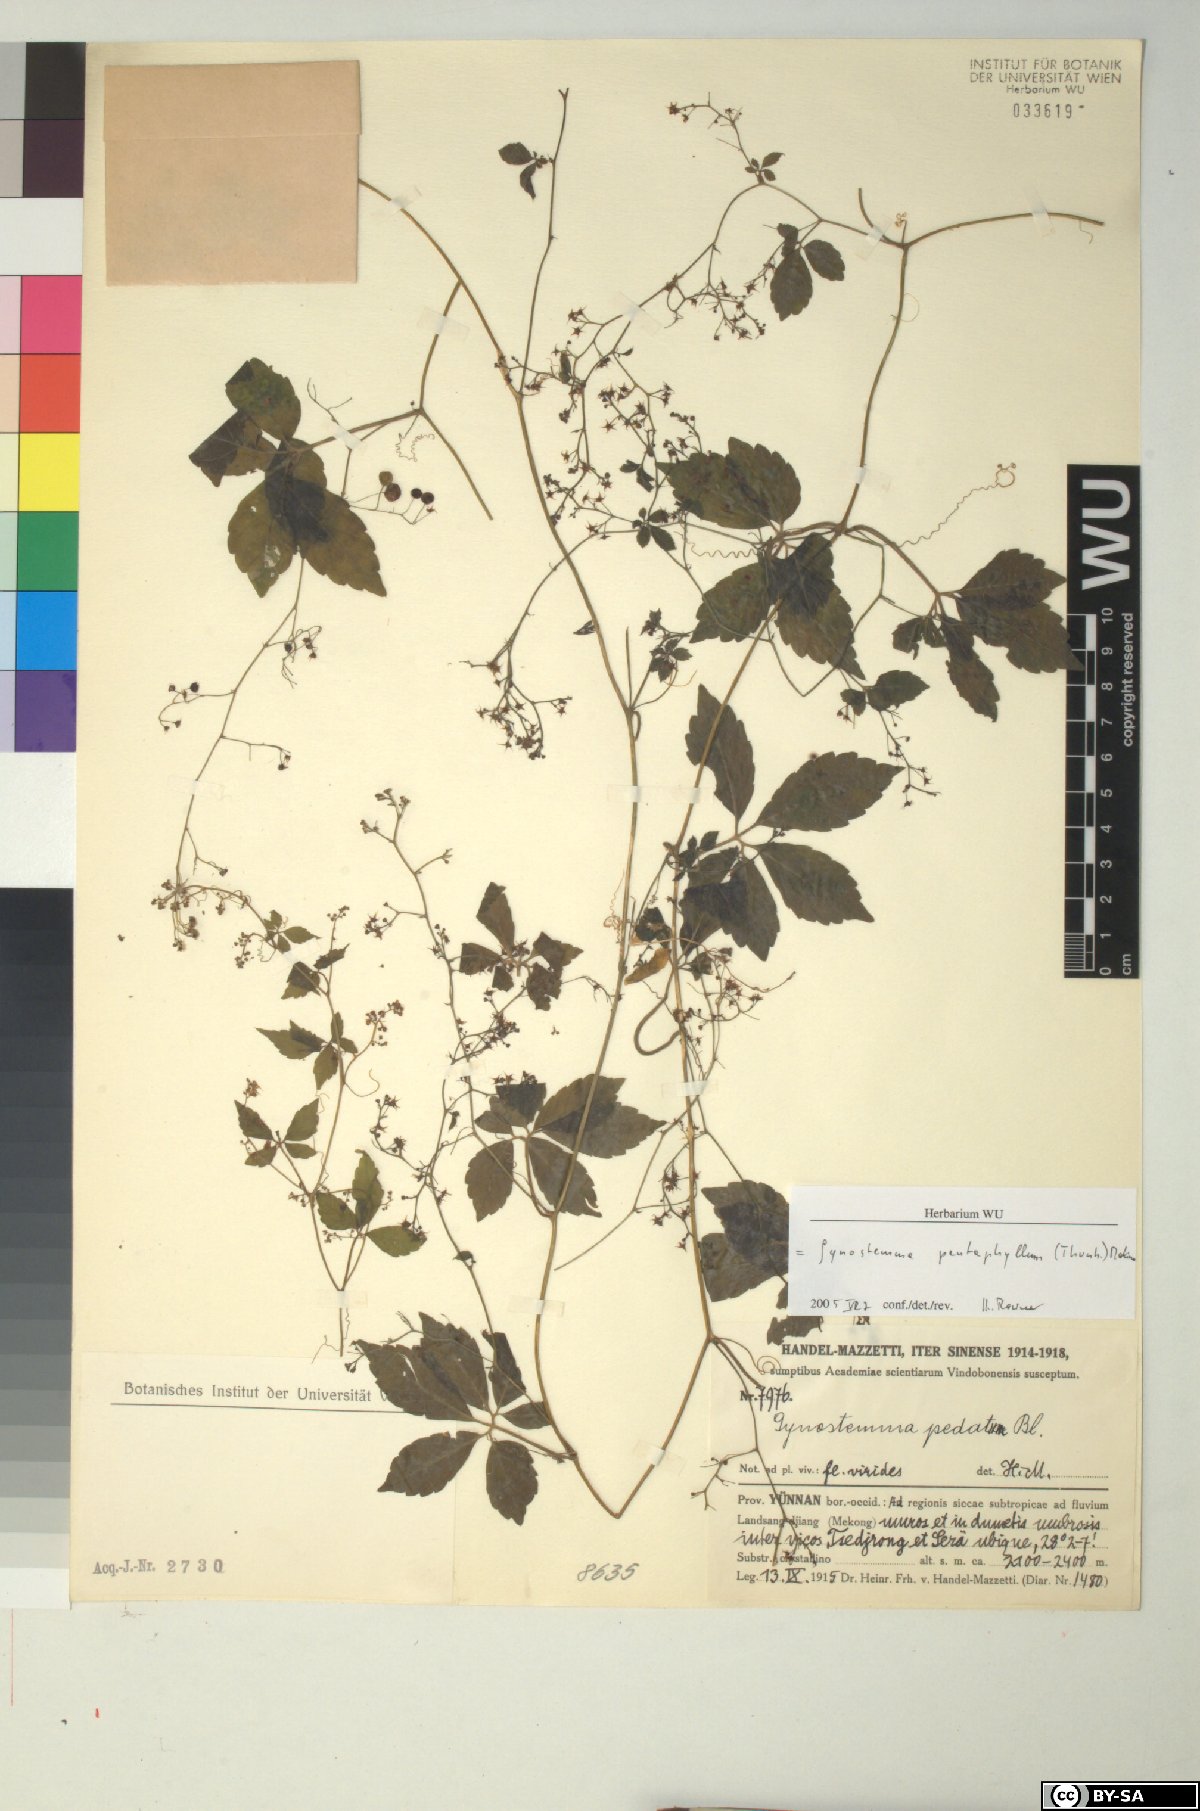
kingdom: Plantae
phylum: Tracheophyta
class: Magnoliopsida
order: Cucurbitales
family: Cucurbitaceae
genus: Gynostemma
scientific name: Gynostemma pentaphyllum
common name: Gynostemma
